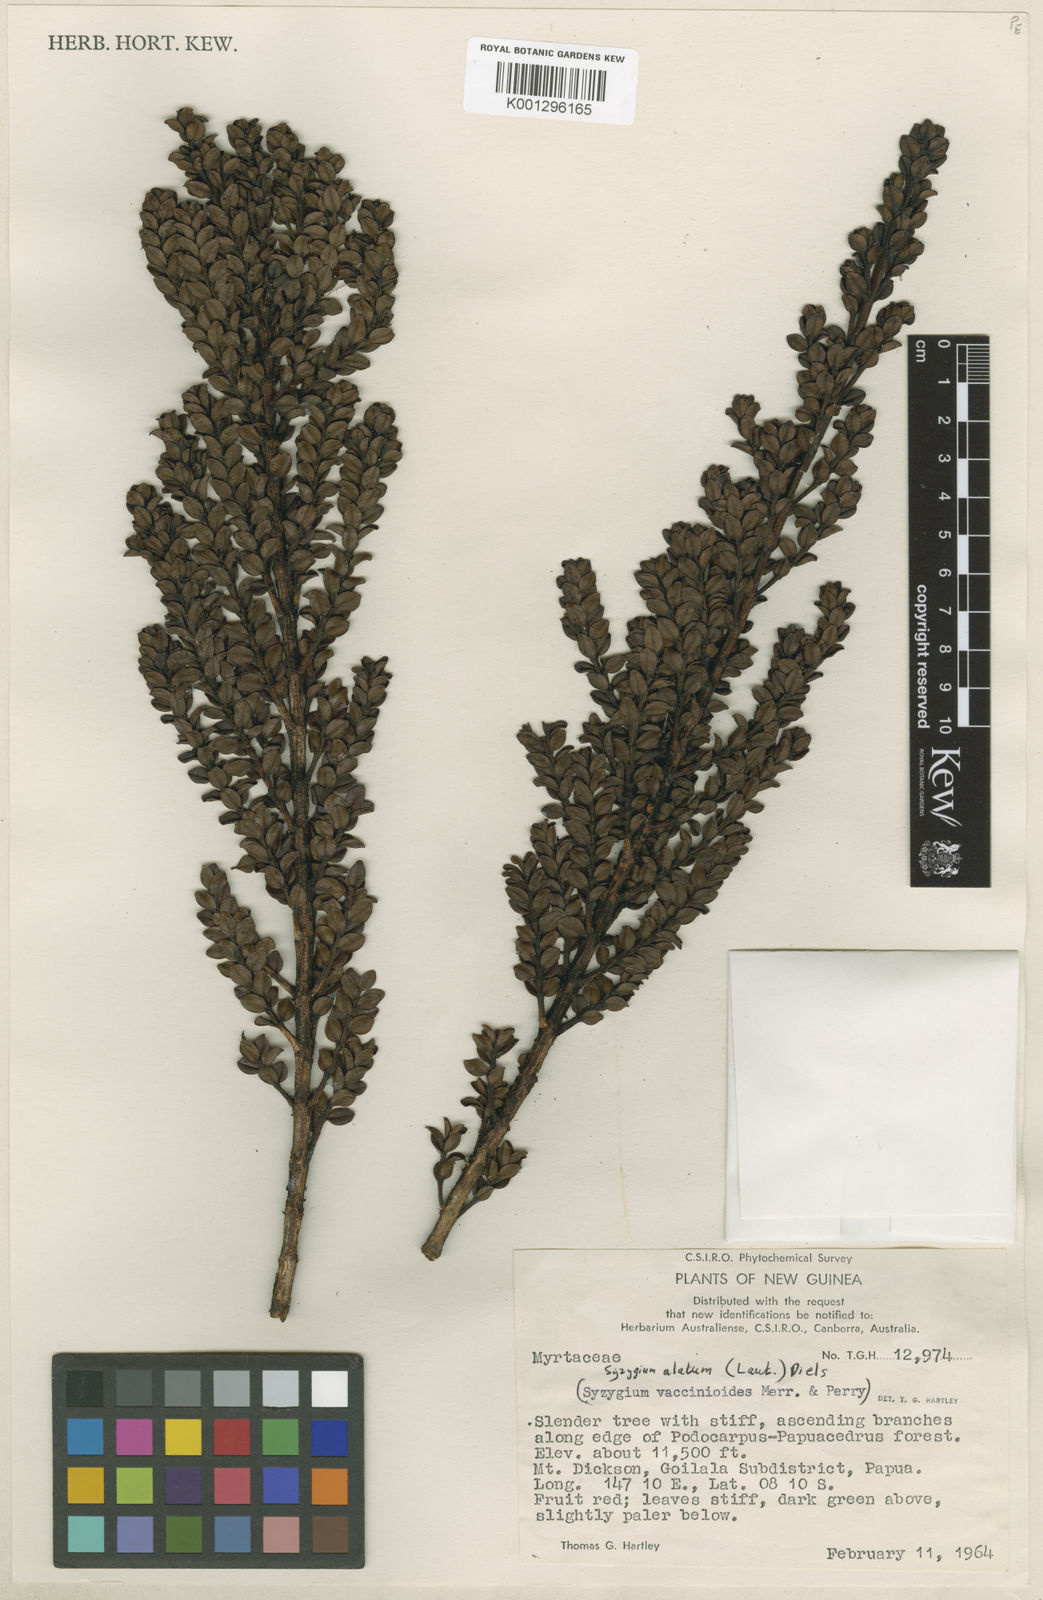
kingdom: Plantae
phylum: Tracheophyta
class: Magnoliopsida
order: Myrtales
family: Myrtaceae
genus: Syzygium
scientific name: Syzygium alatum
